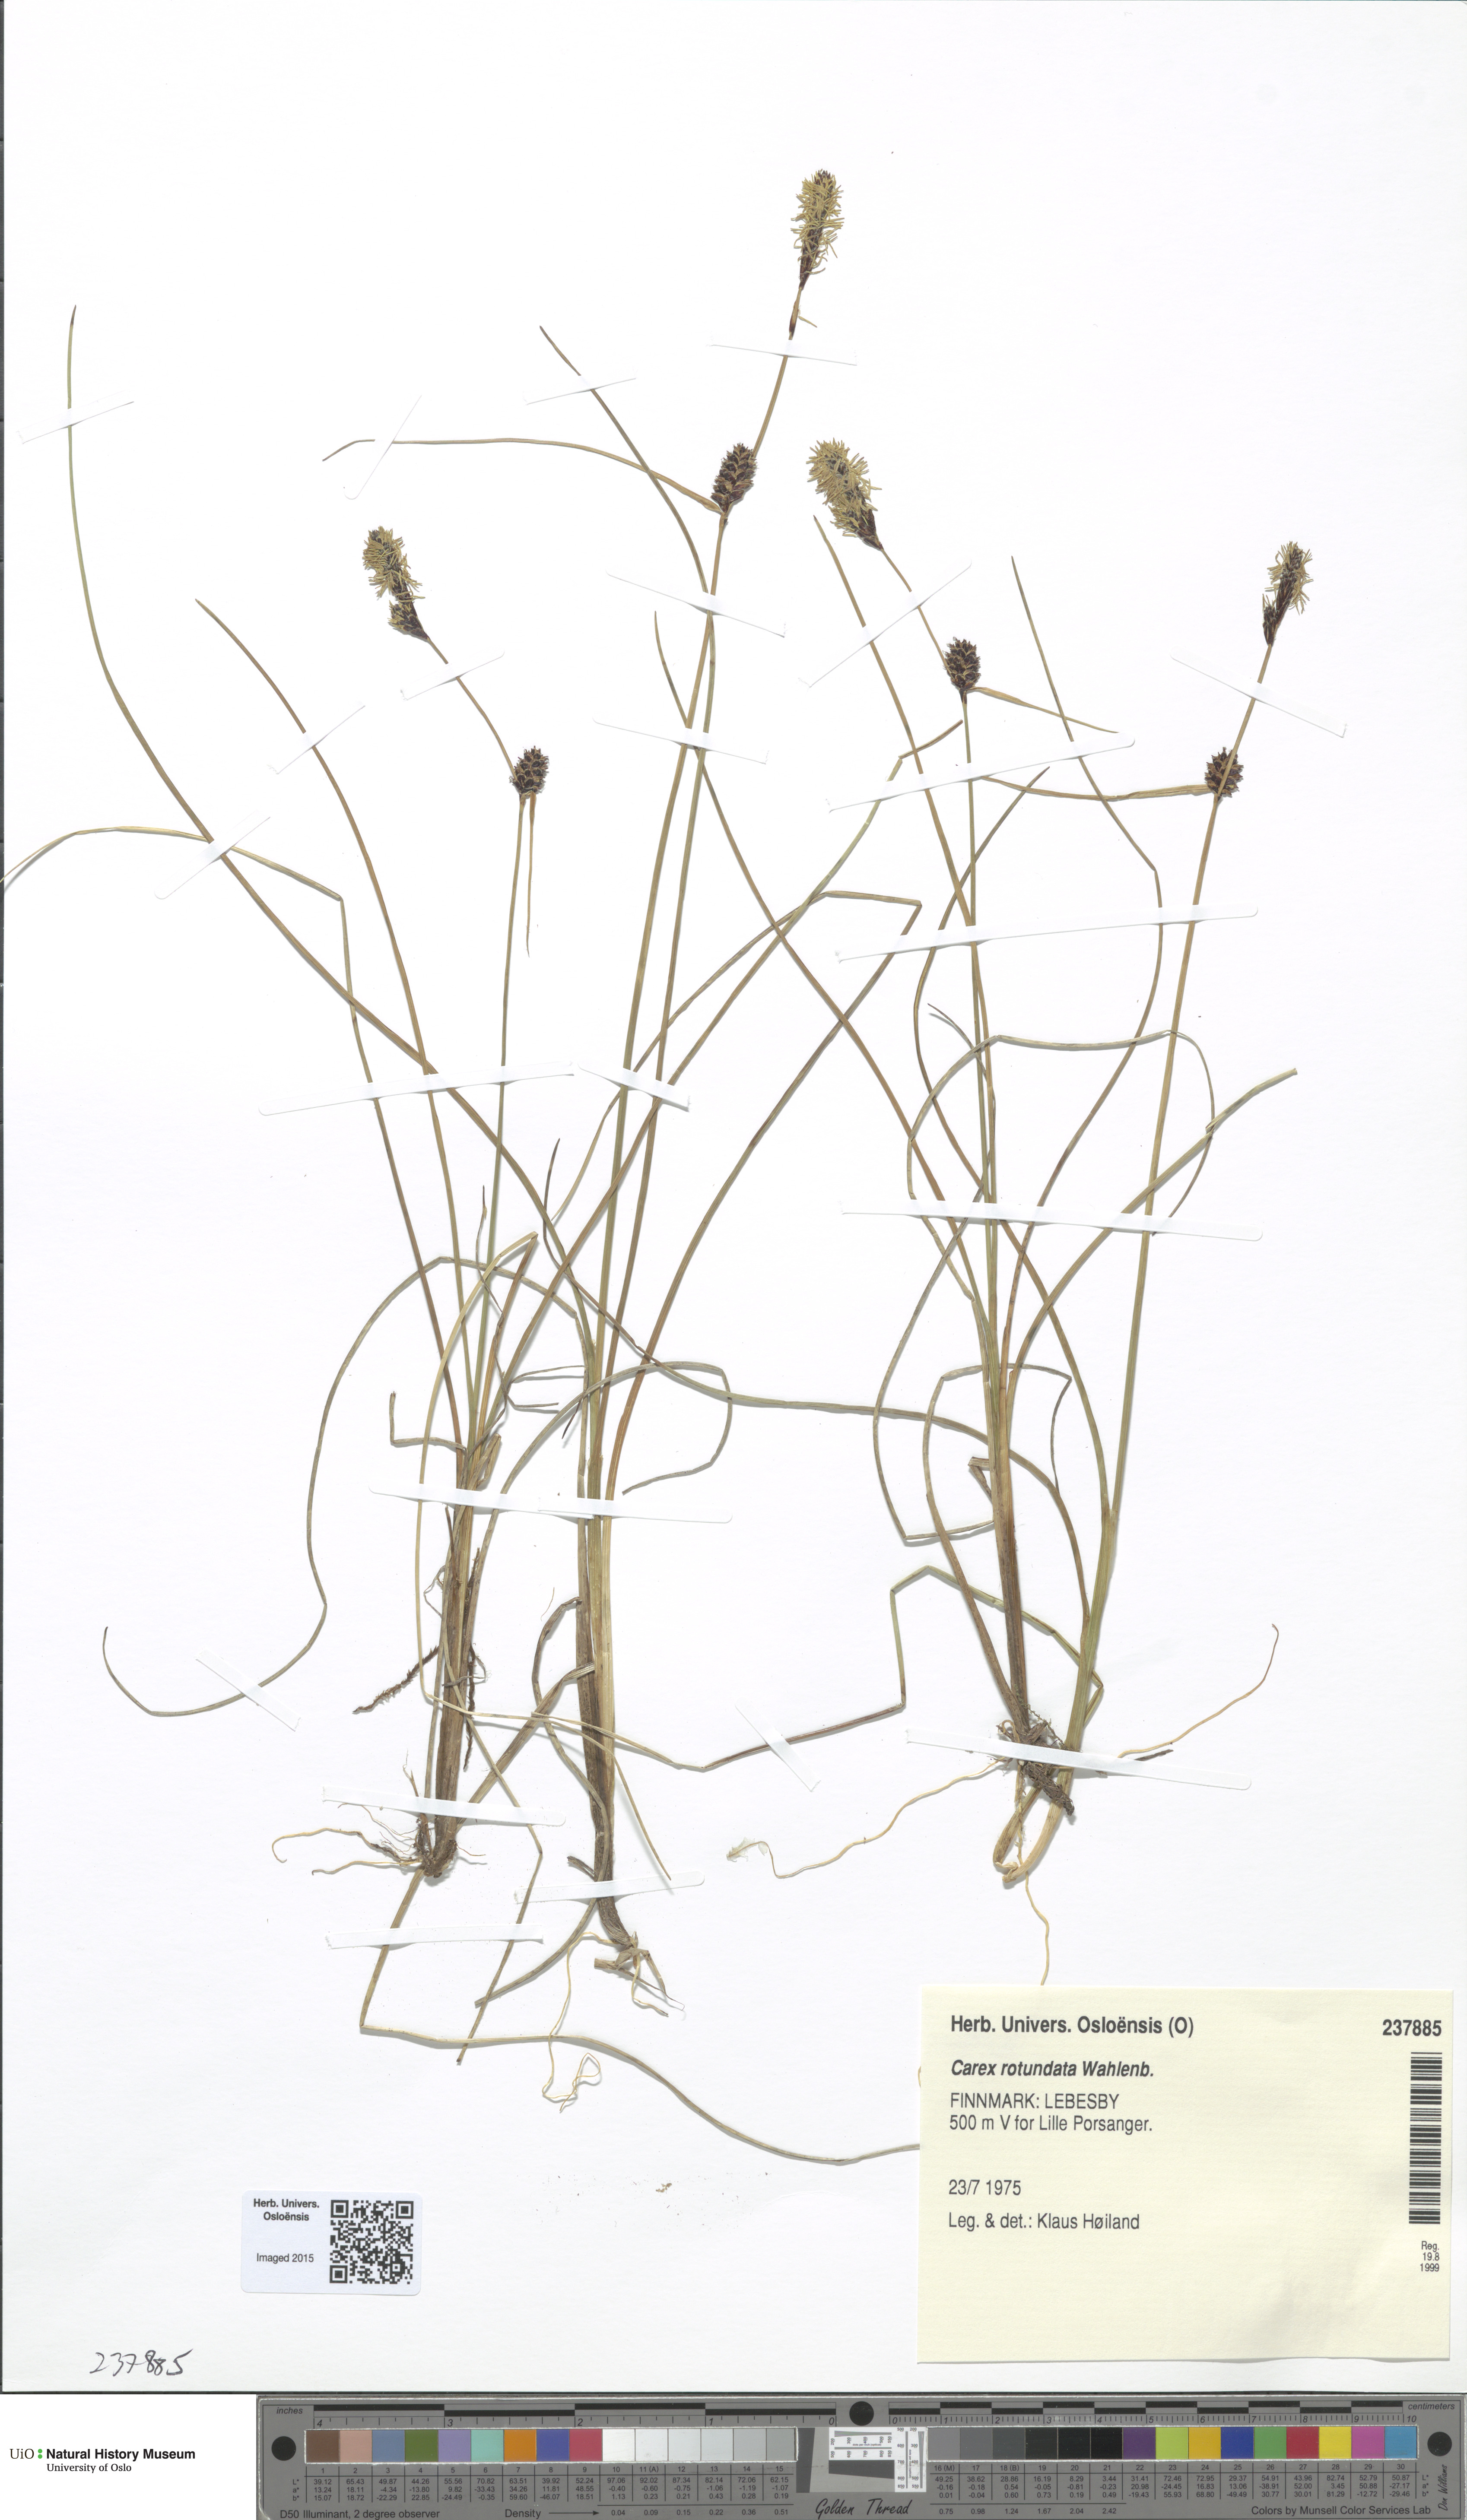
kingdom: Plantae
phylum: Tracheophyta
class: Liliopsida
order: Poales
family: Cyperaceae
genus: Carex
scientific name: Carex rotundata
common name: Round-fruited sedge
